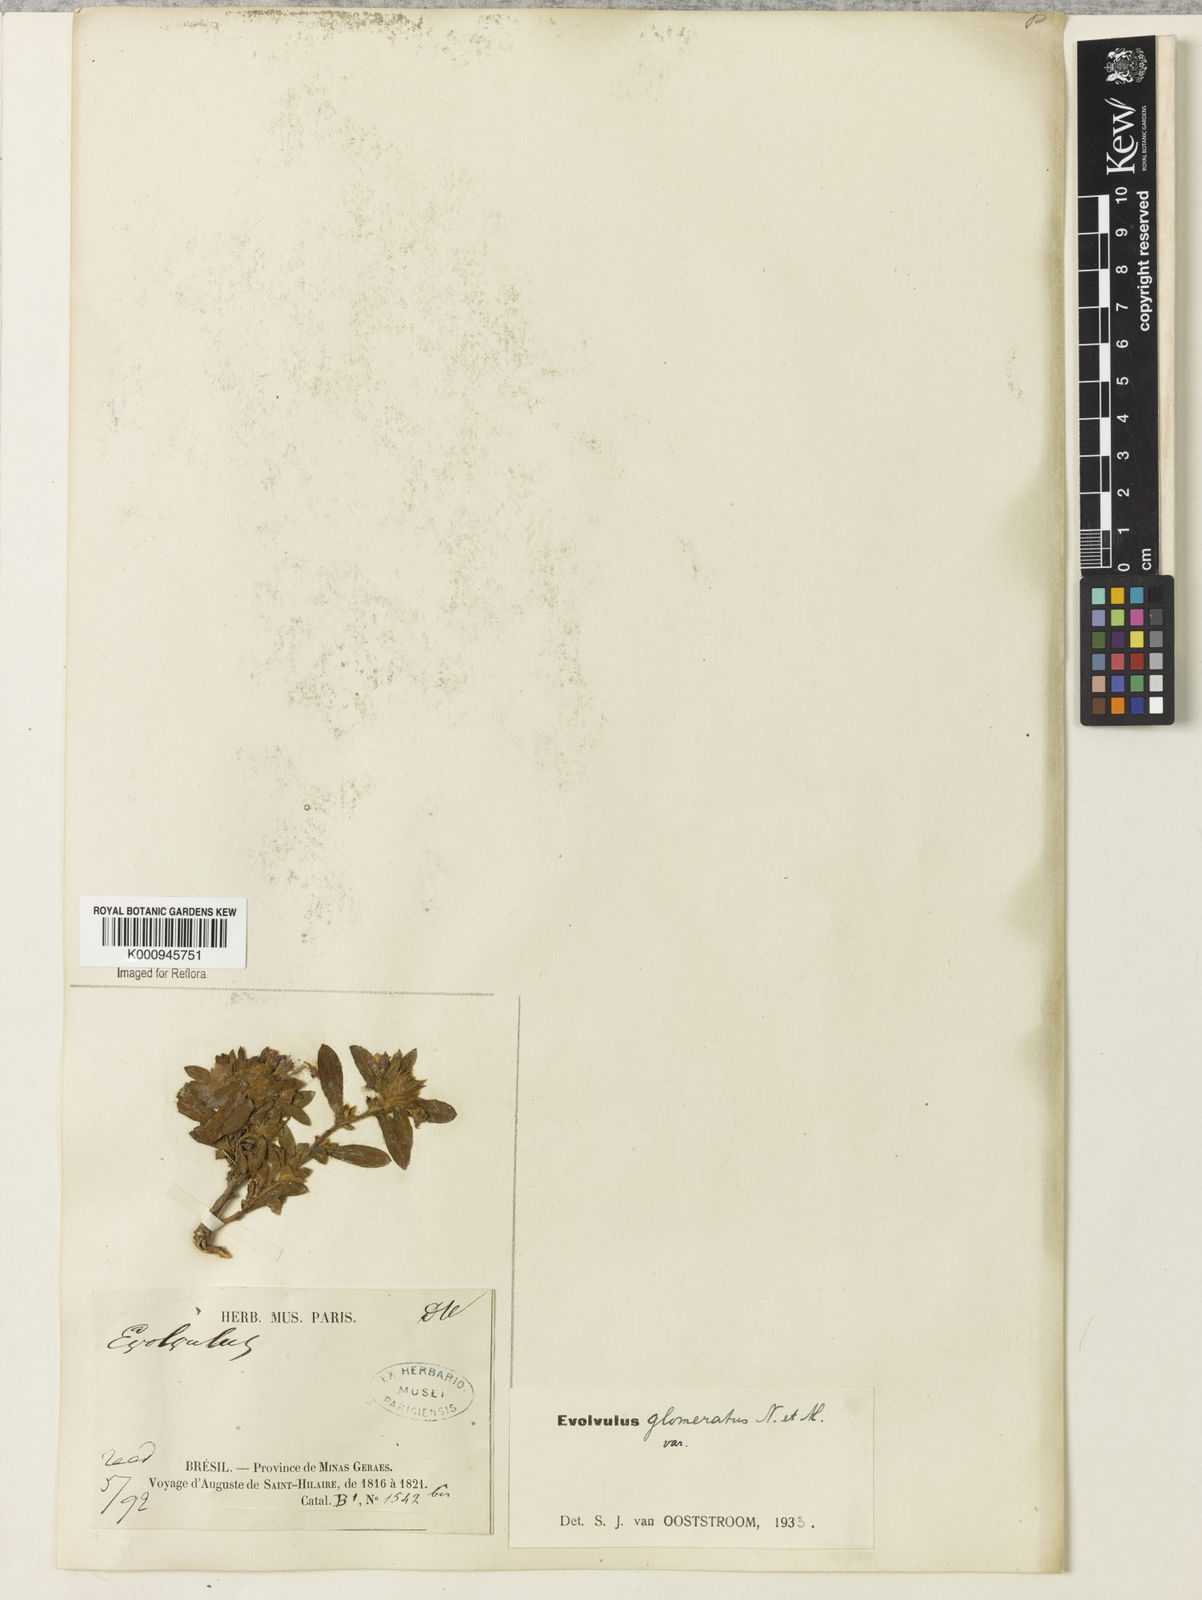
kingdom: Plantae
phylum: Tracheophyta
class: Magnoliopsida
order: Solanales
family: Convolvulaceae
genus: Evolvulus
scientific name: Evolvulus glomeratus
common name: Brazilian dwarf morning-glory
